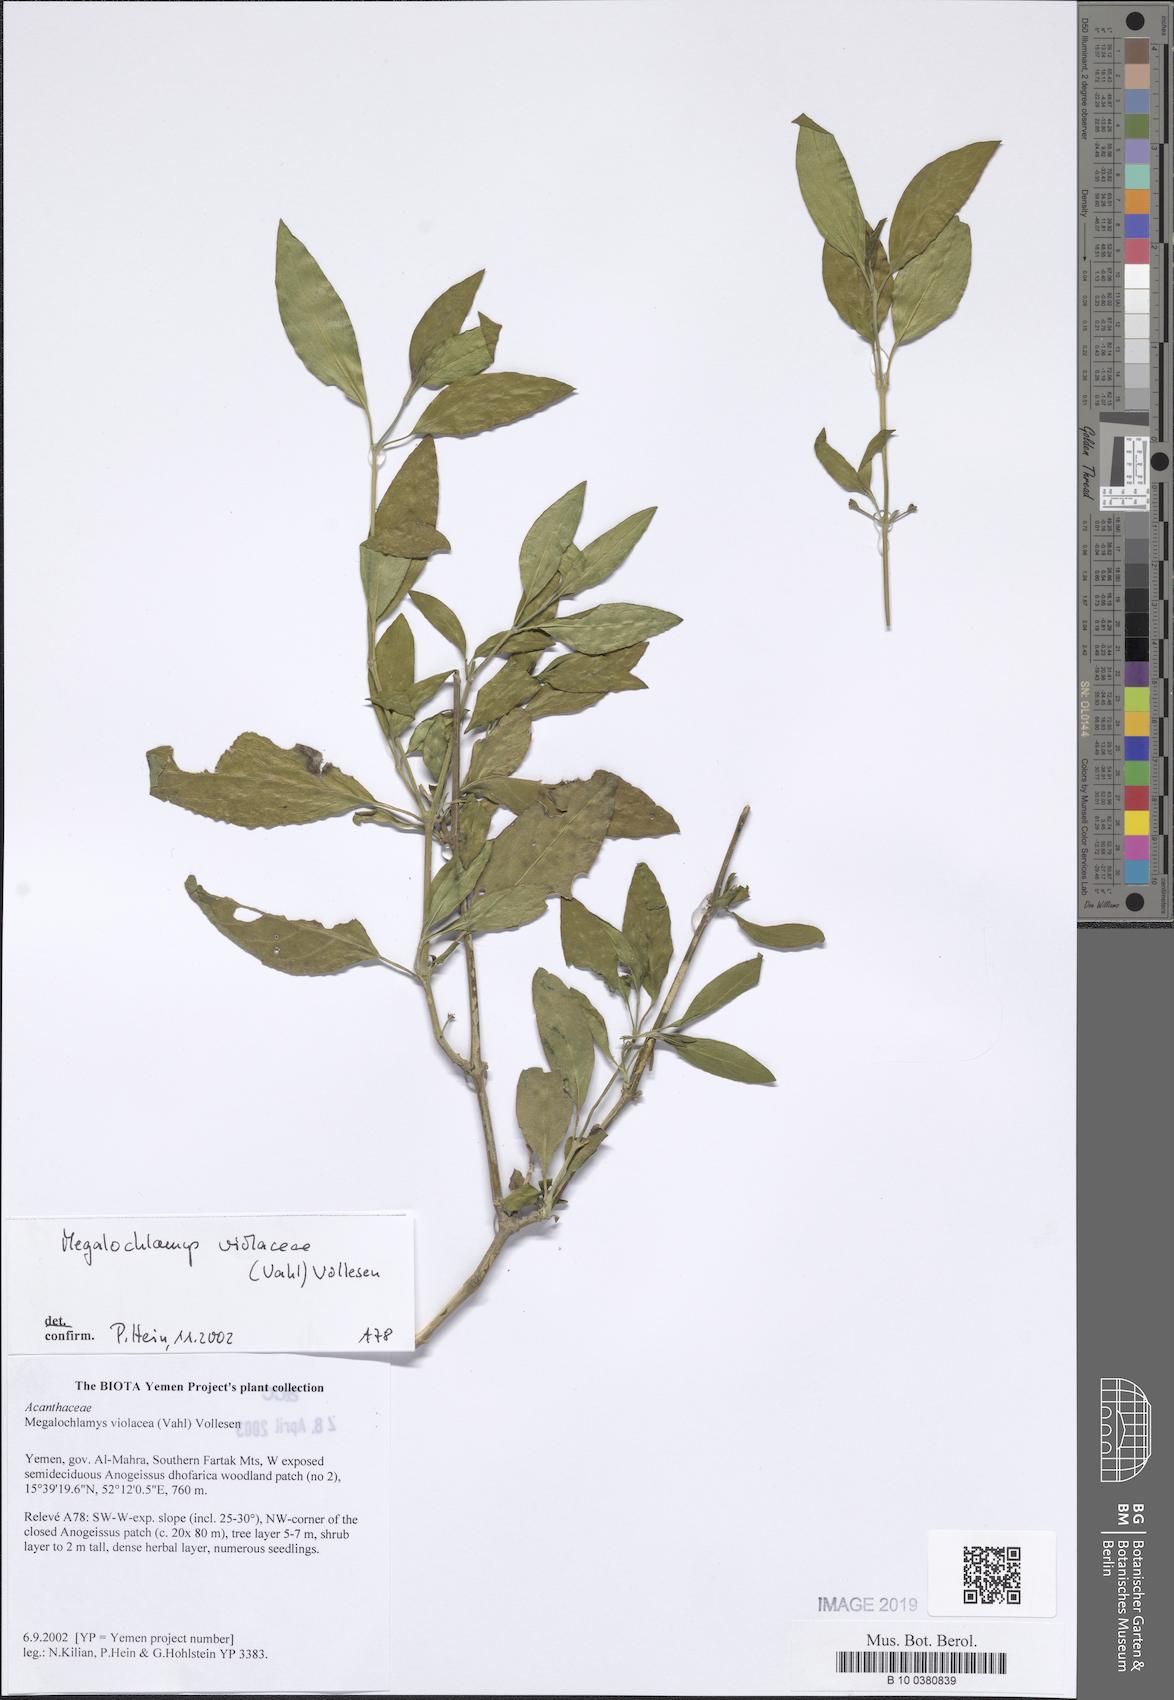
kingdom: Plantae
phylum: Tracheophyta
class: Magnoliopsida
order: Lamiales
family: Acanthaceae
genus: Megalochlamys
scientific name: Megalochlamys violacea
